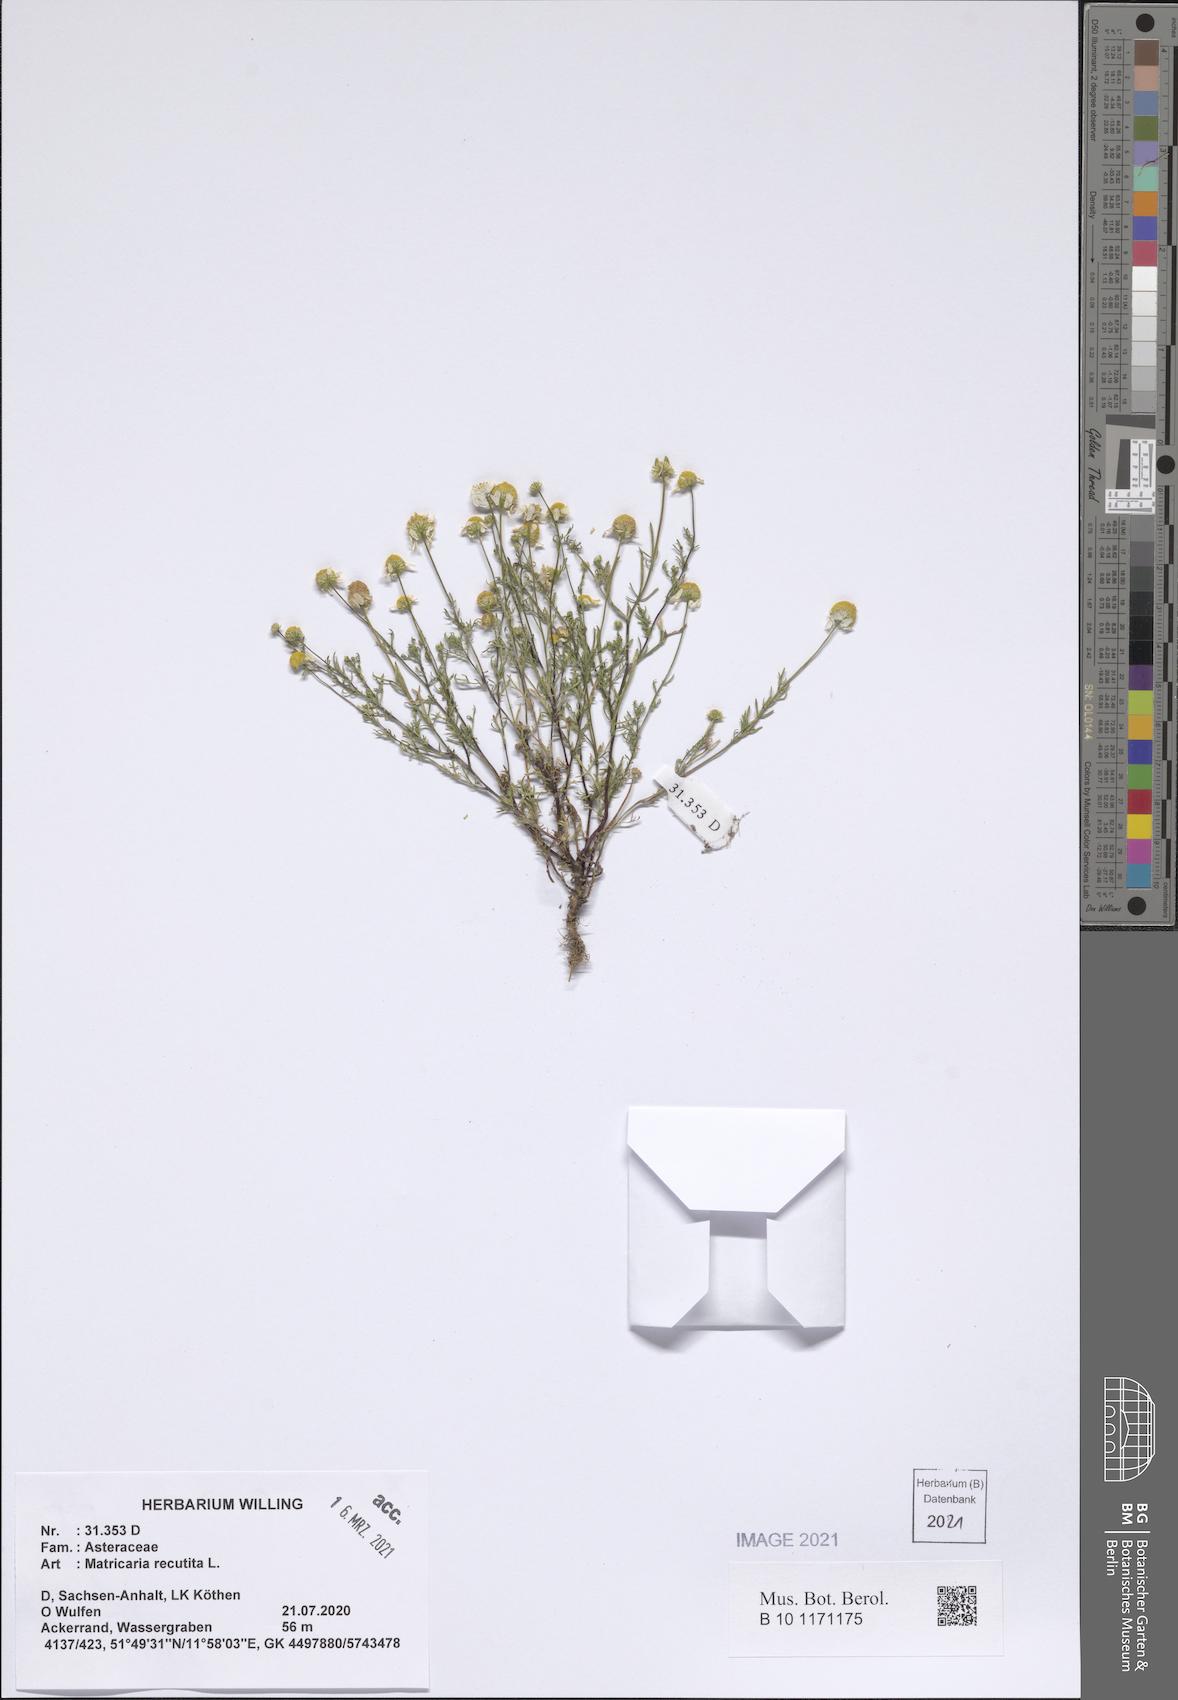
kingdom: Plantae
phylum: Tracheophyta
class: Magnoliopsida
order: Asterales
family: Asteraceae
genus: Matricaria
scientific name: Matricaria chamomilla
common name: Scented mayweed
